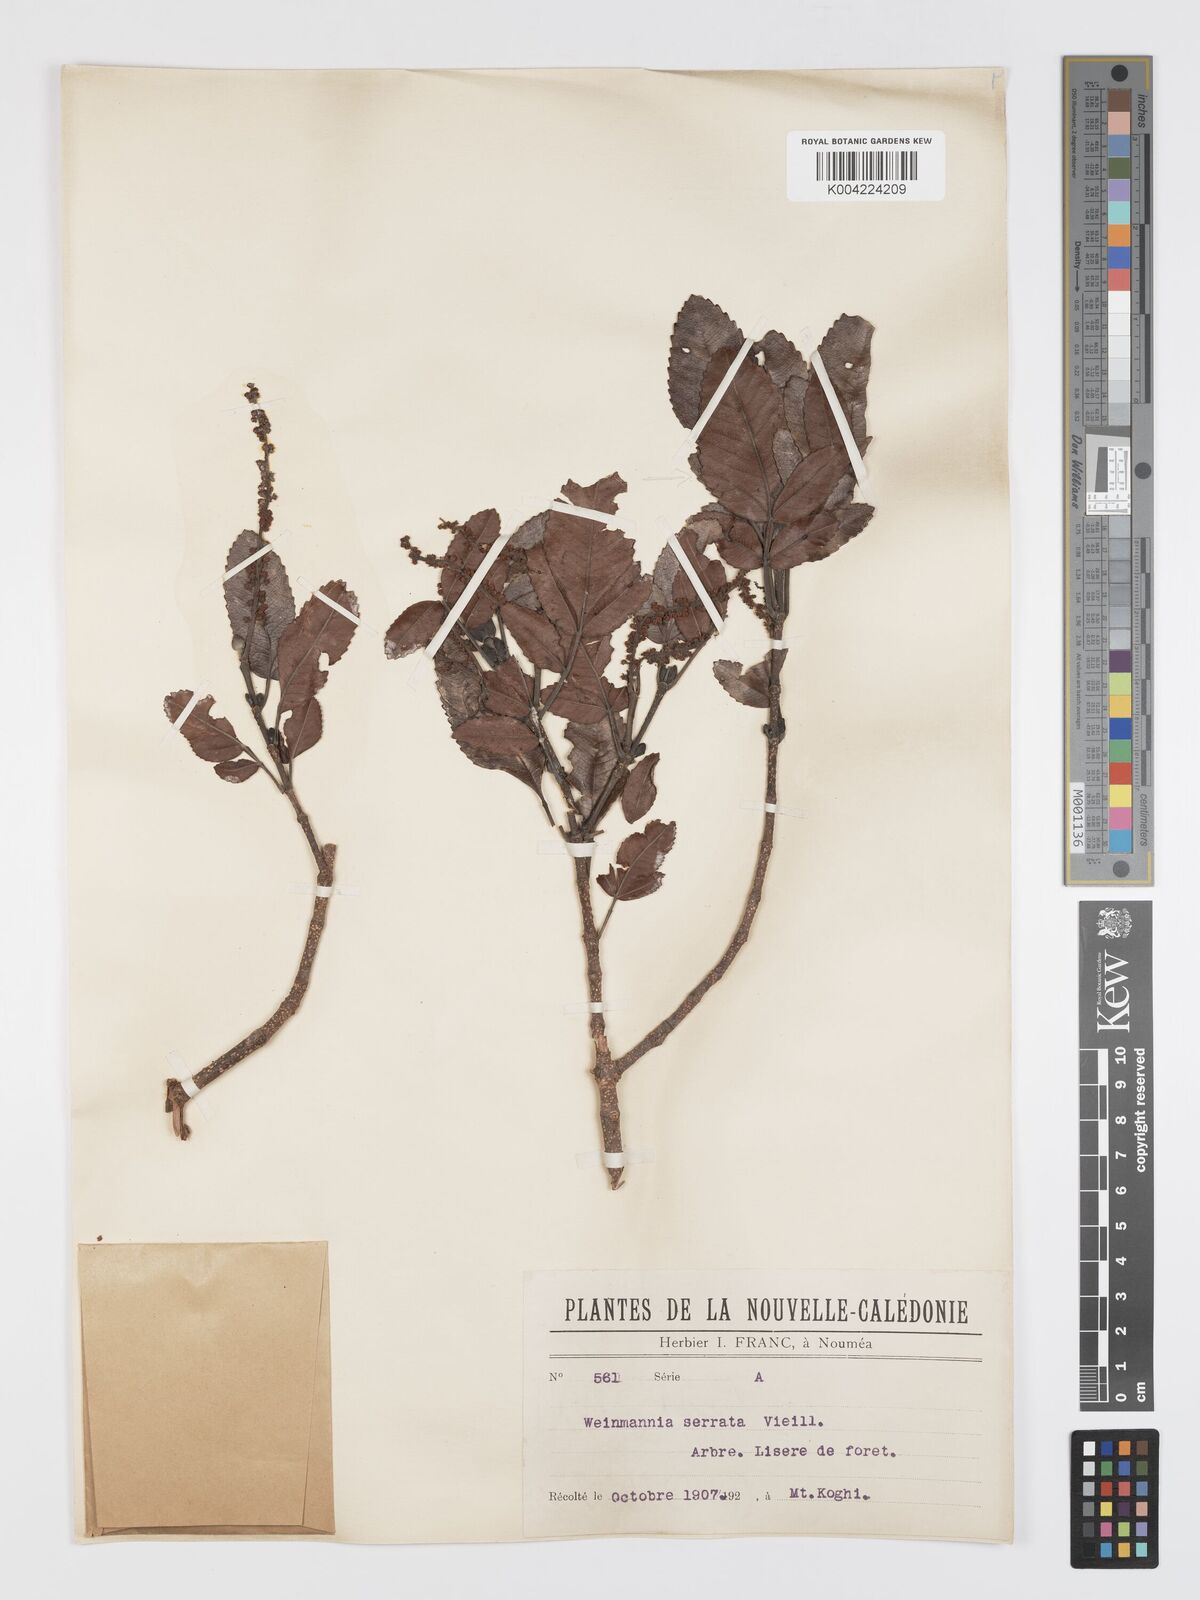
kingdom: Plantae
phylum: Tracheophyta
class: Magnoliopsida
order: Oxalidales
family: Cunoniaceae
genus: Cunonia
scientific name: Cunonia koghicola
